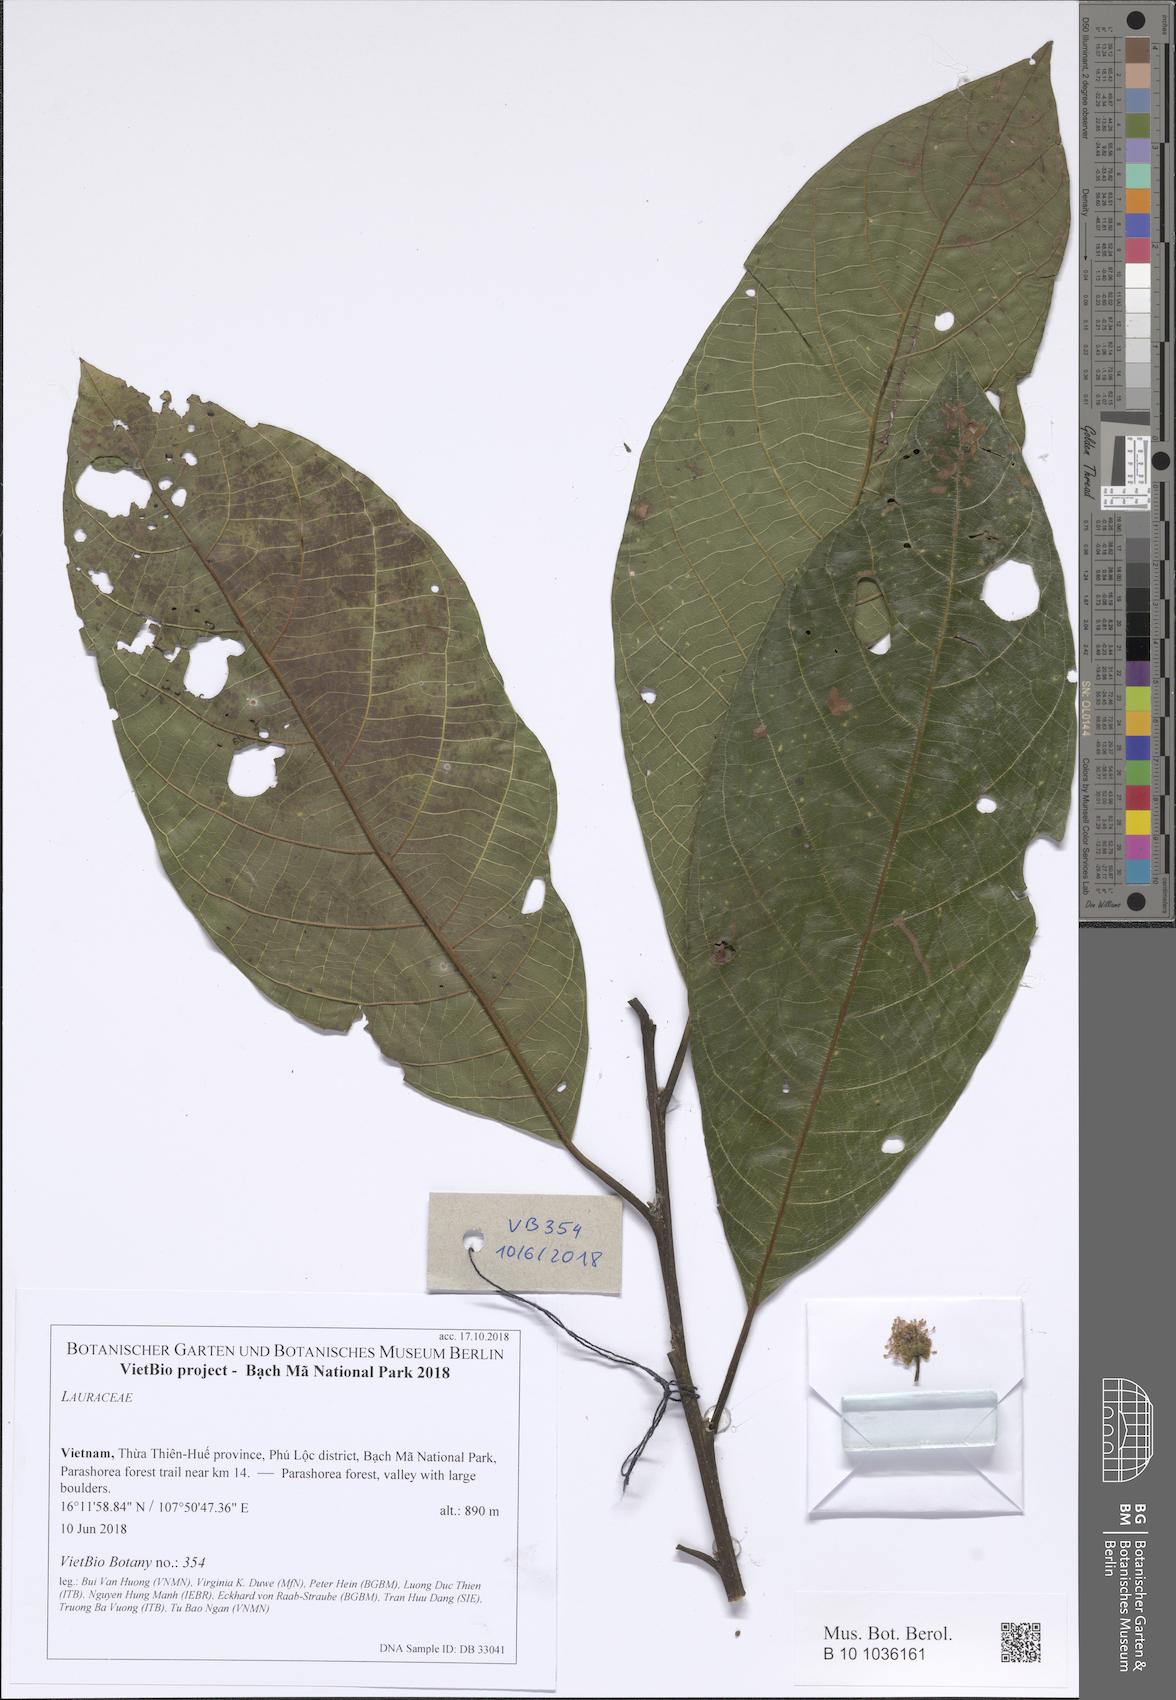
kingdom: Plantae
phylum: Tracheophyta
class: Magnoliopsida
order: Laurales
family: Lauraceae
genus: Litsea
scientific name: Litsea
